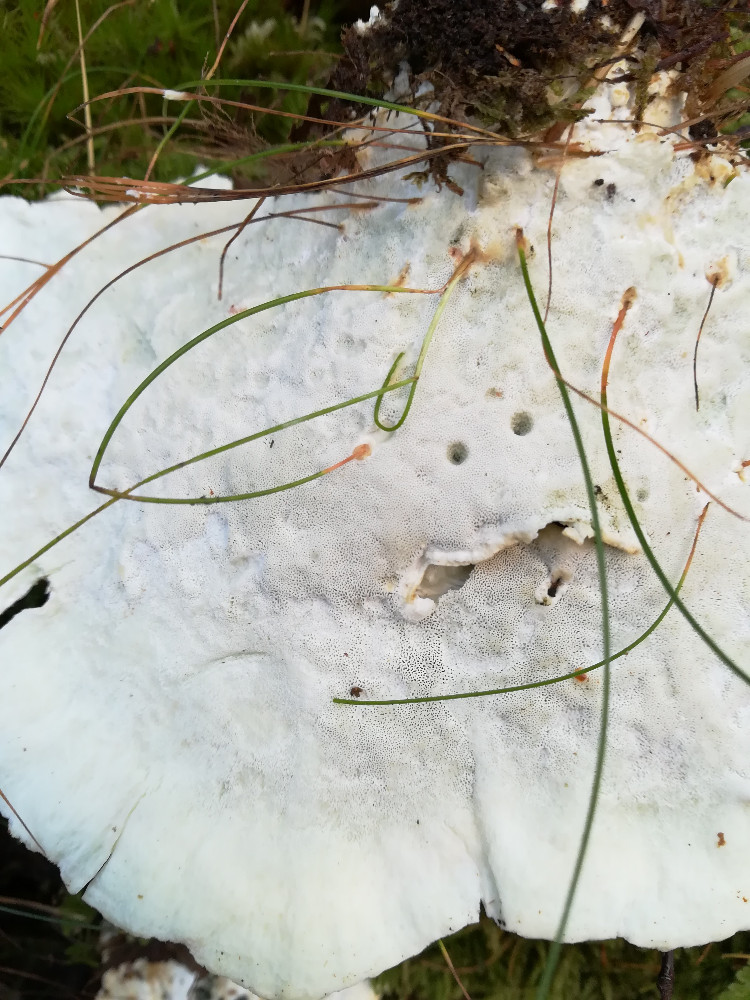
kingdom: Fungi
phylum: Basidiomycota
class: Agaricomycetes
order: Polyporales
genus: Calcipostia
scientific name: Calcipostia guttulata
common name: dråbe-kødporesvamp
